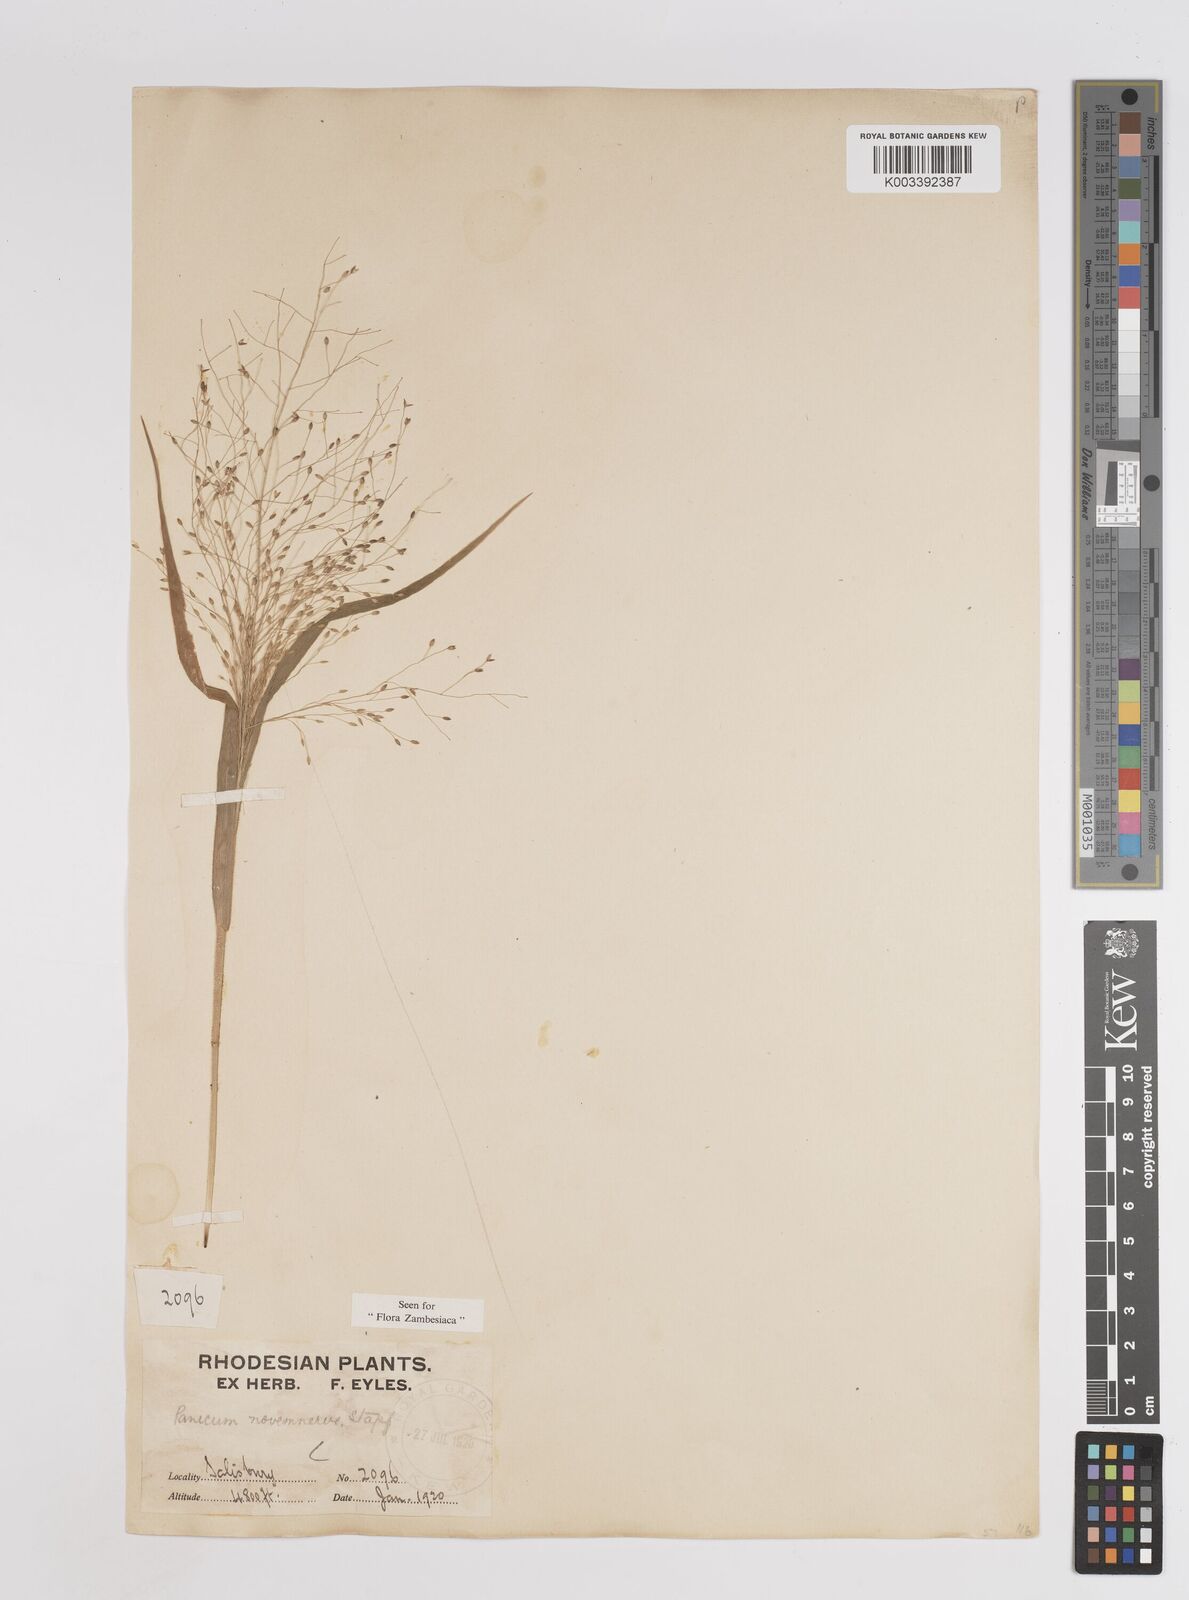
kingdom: Plantae
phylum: Tracheophyta
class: Liliopsida
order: Poales
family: Poaceae
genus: Panicum
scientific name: Panicum novemnerve
